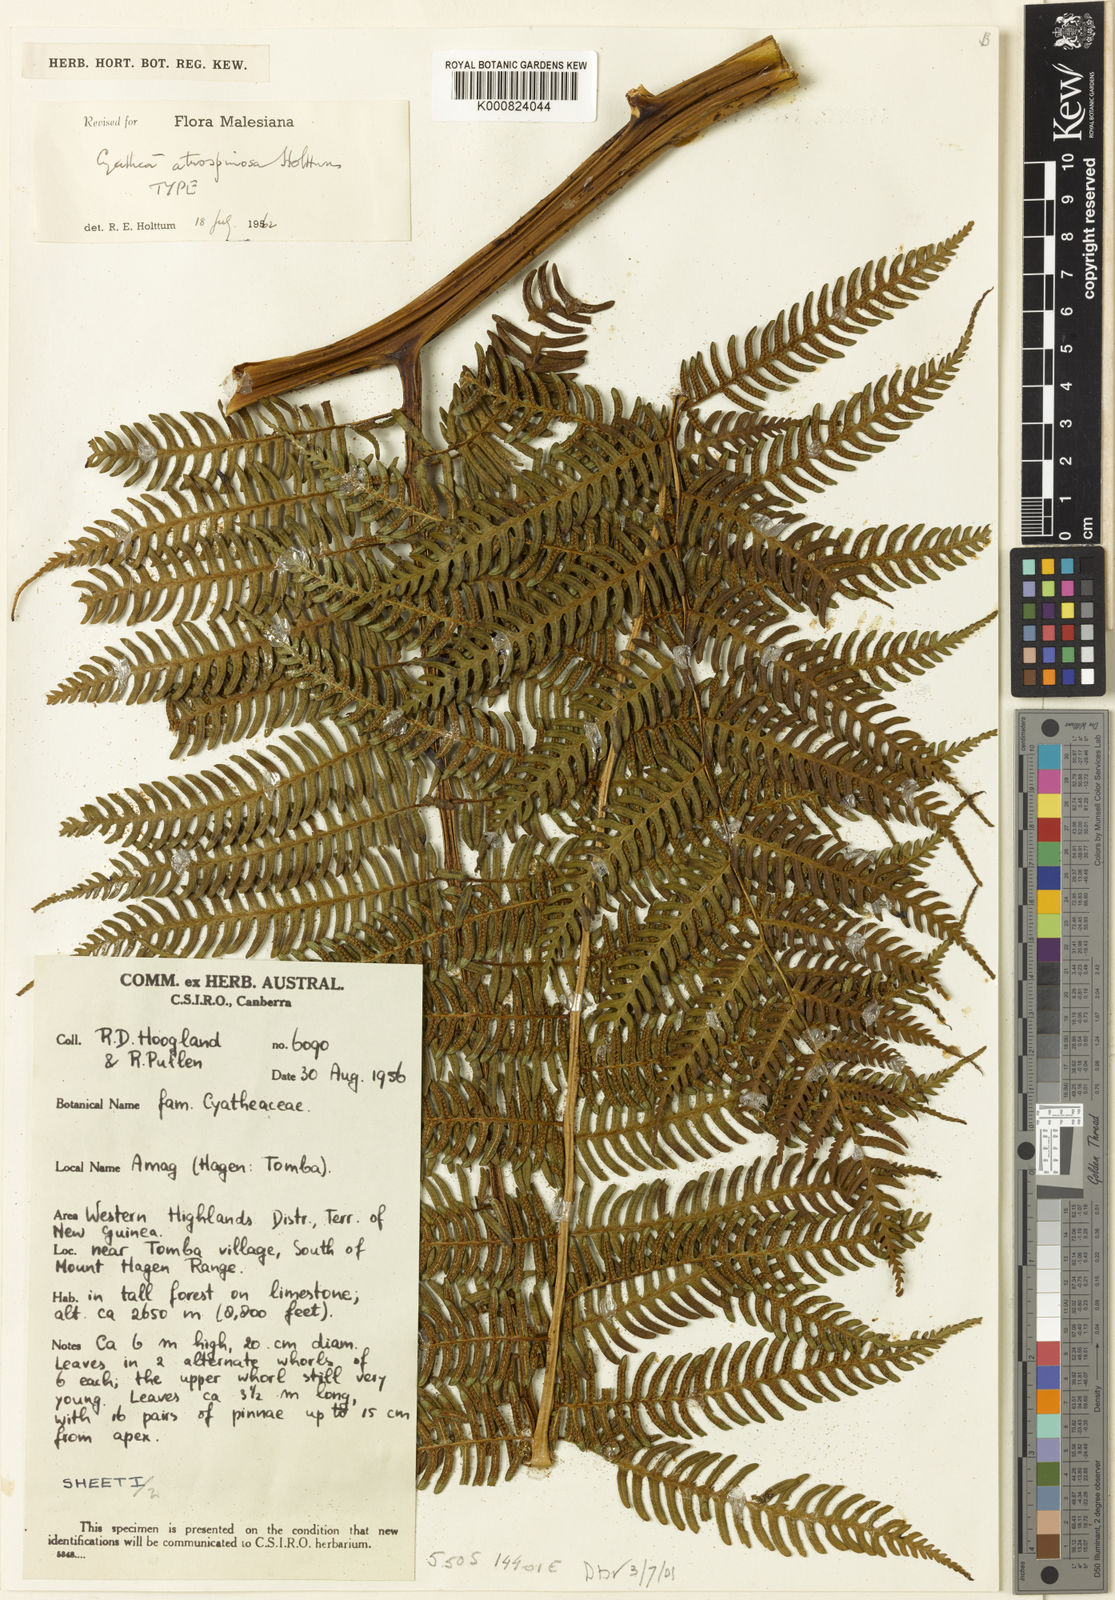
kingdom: Plantae
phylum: Tracheophyta
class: Polypodiopsida
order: Cyatheales
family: Cyatheaceae
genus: Cyathea
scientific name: Cyathea
